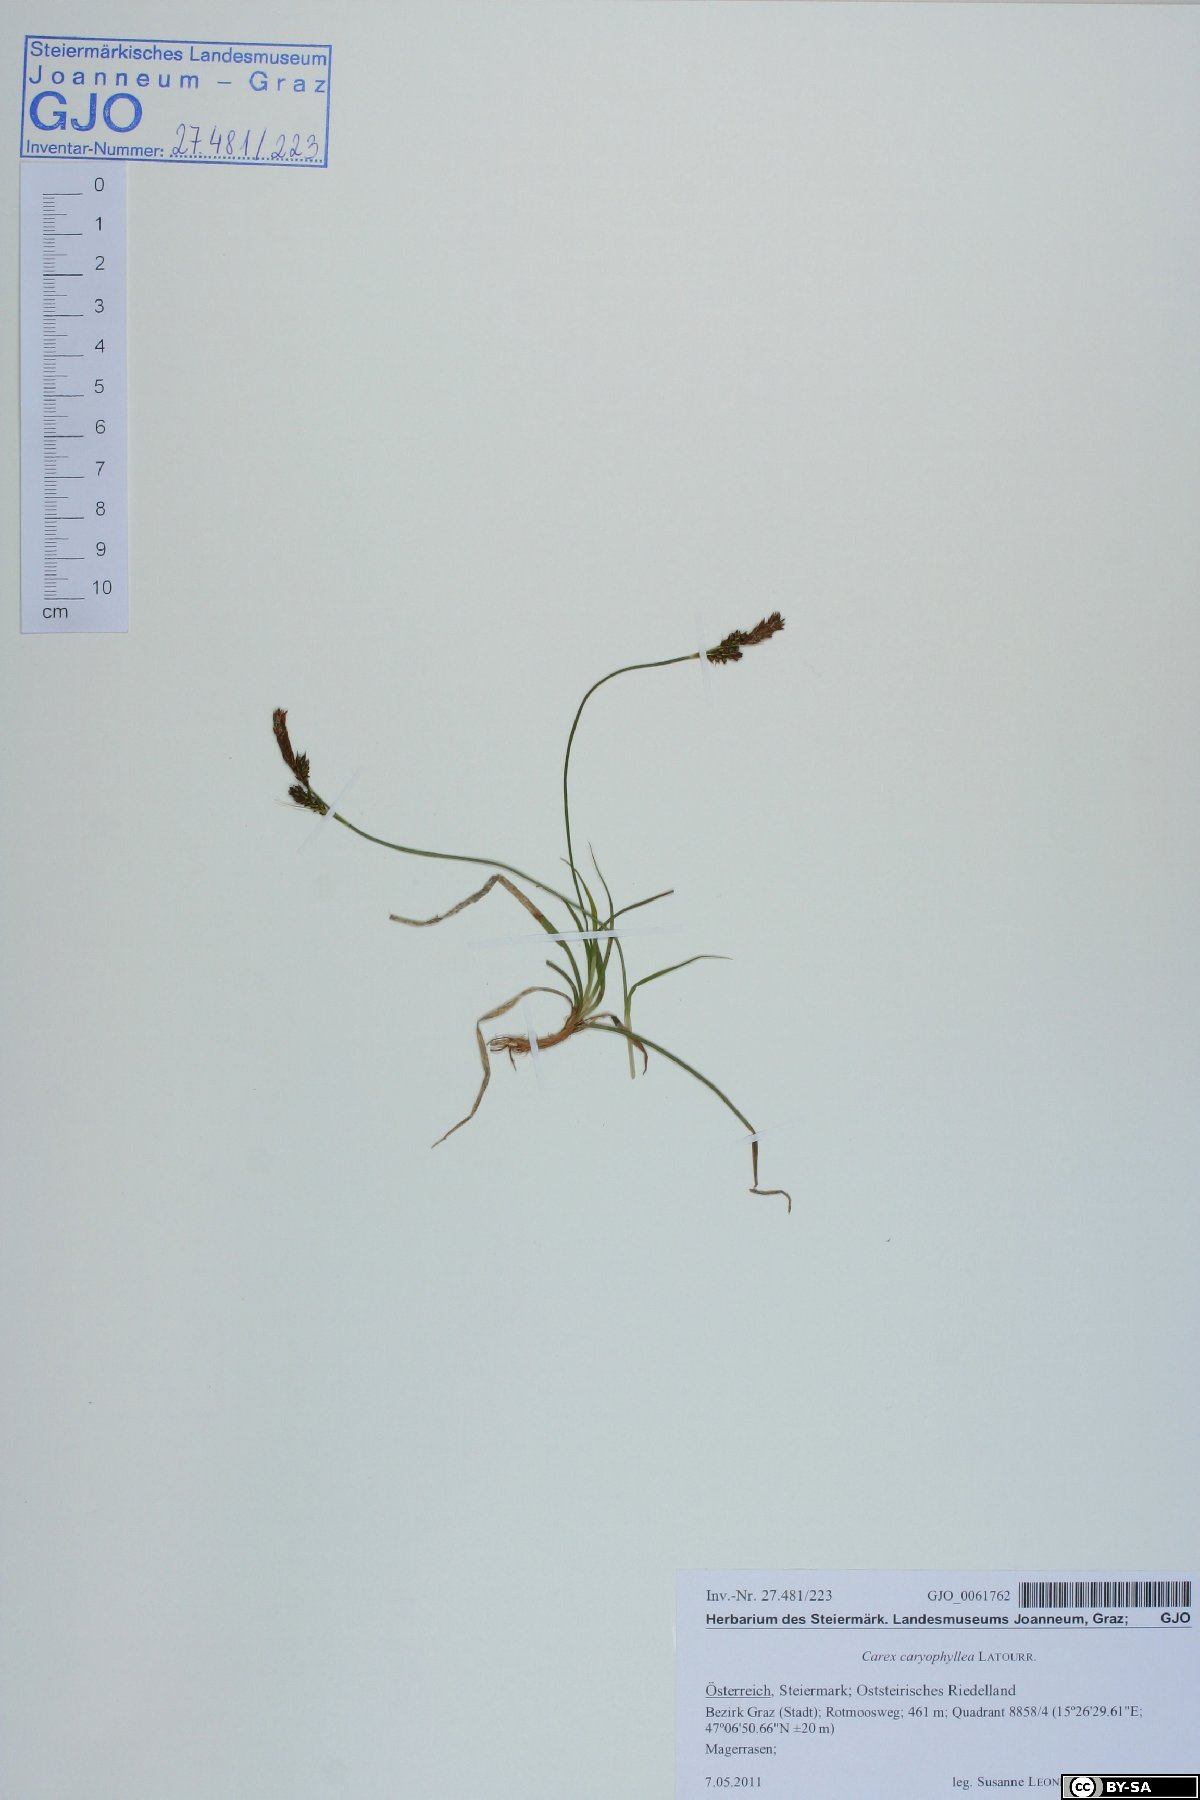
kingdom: Plantae
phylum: Tracheophyta
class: Liliopsida
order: Poales
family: Cyperaceae
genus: Carex
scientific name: Carex caryophyllea
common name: Spring sedge
